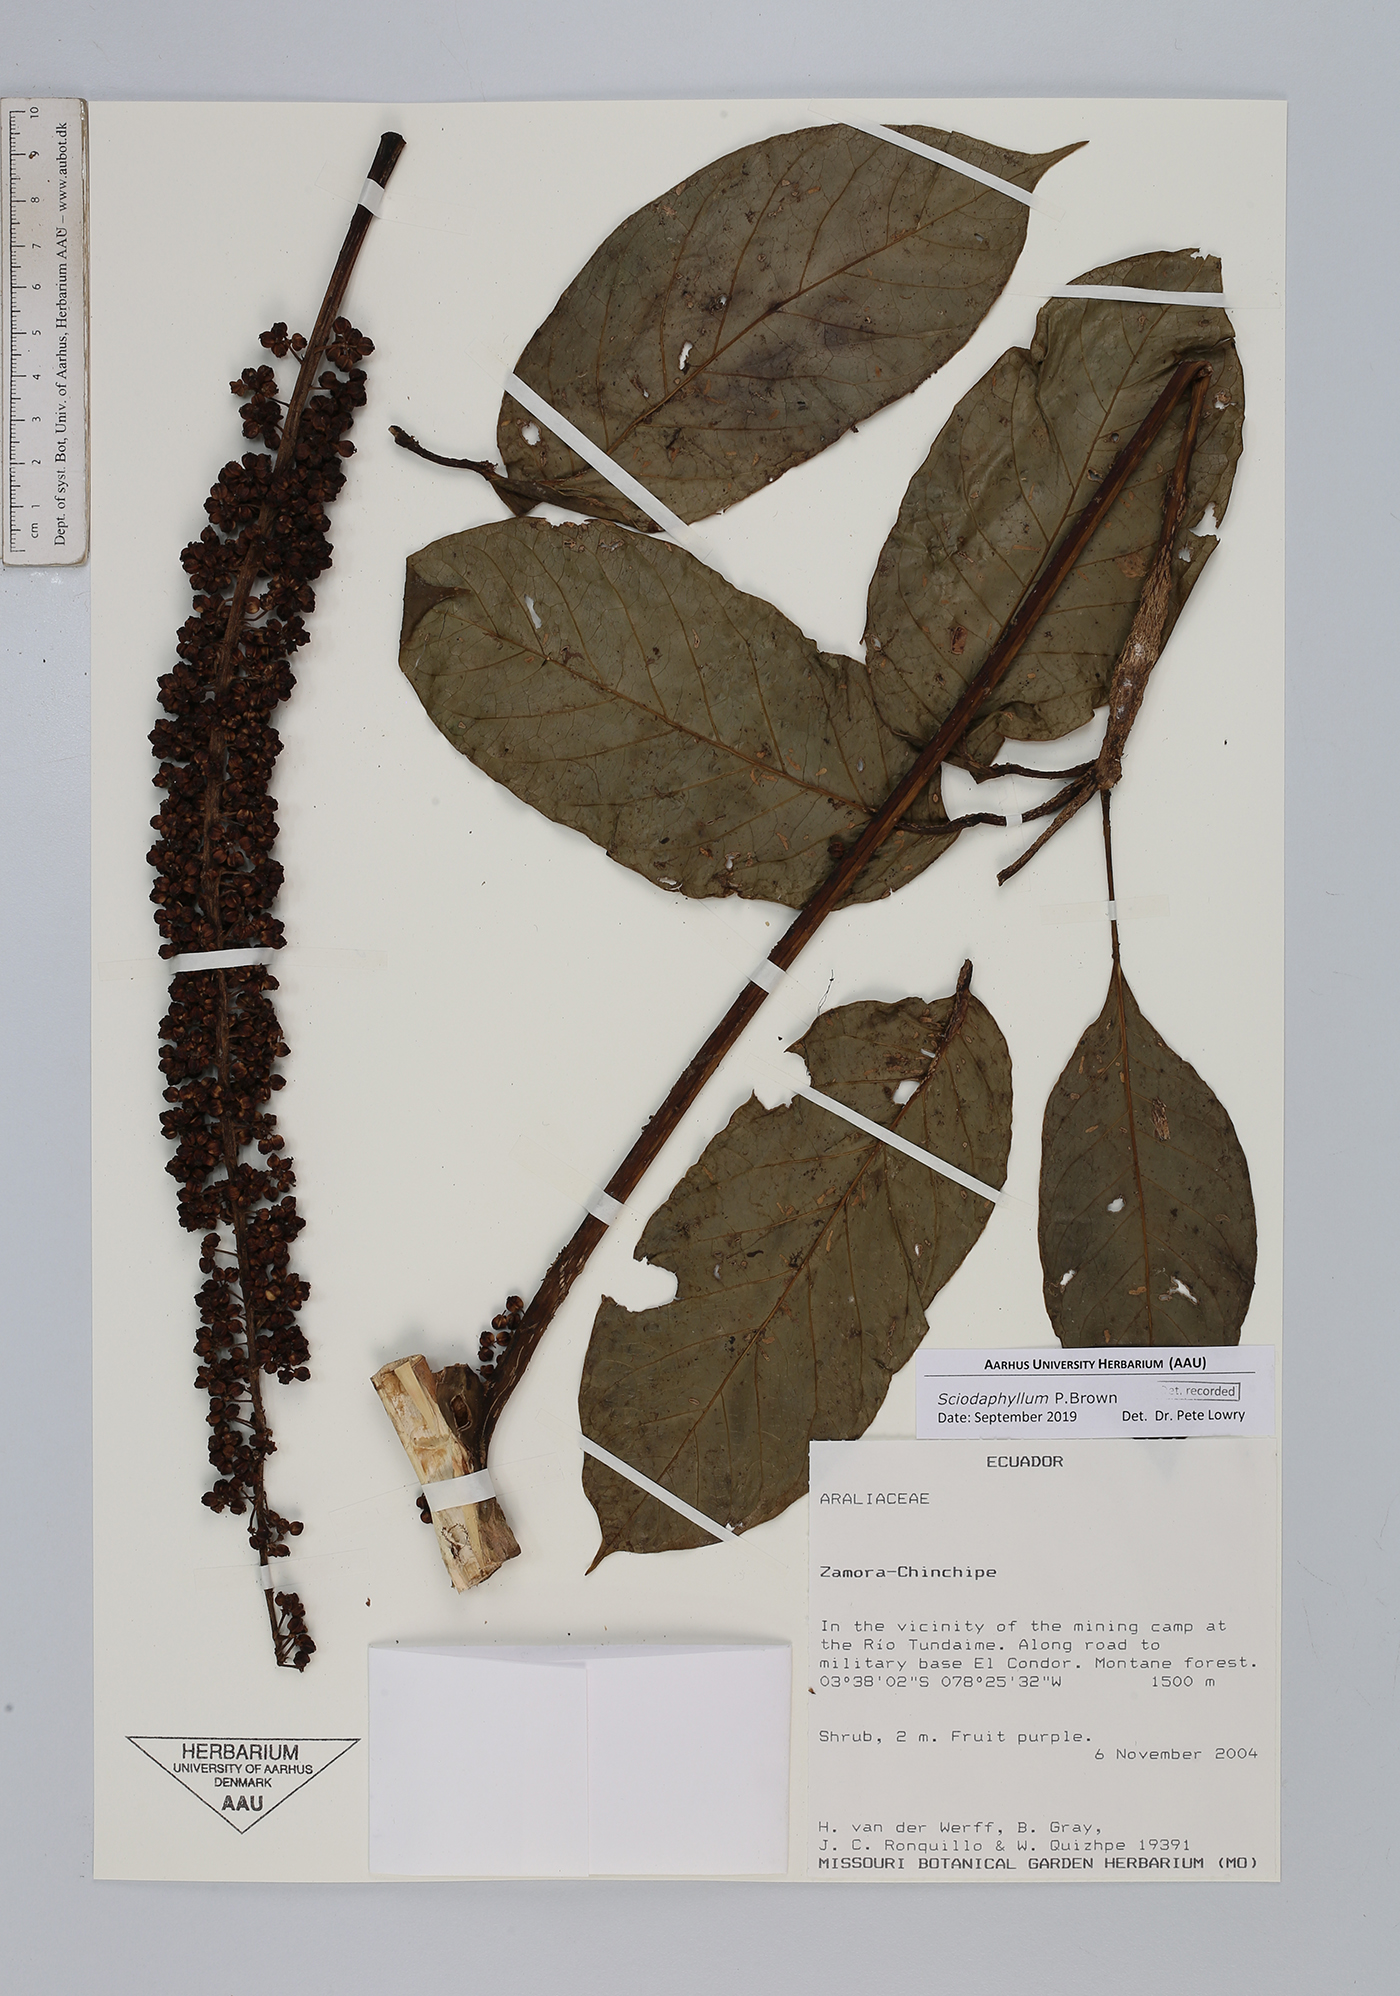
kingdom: Plantae
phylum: Tracheophyta
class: Magnoliopsida
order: Apiales
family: Araliaceae
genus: Sciodaphyllum
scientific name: Sciodaphyllum
